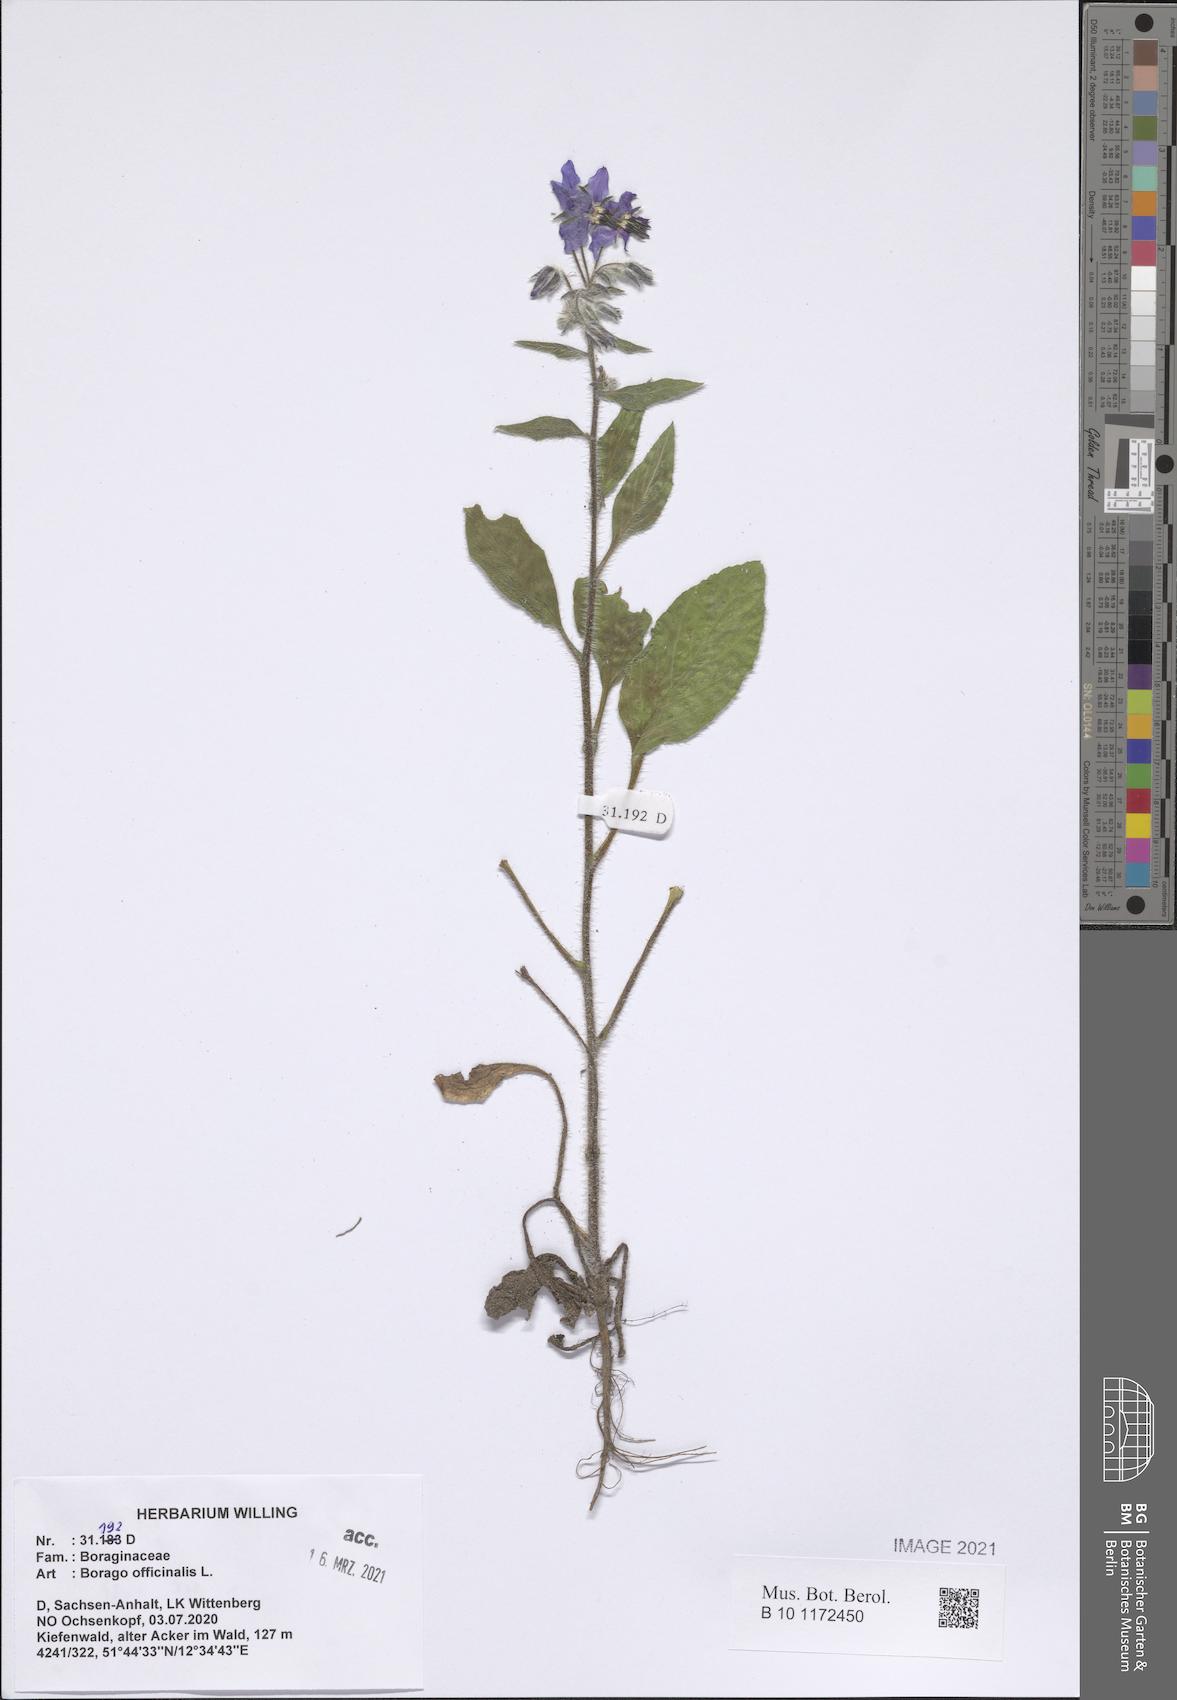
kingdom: Plantae
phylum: Tracheophyta
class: Magnoliopsida
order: Boraginales
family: Boraginaceae
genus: Borago
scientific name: Borago officinalis
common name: Borage
